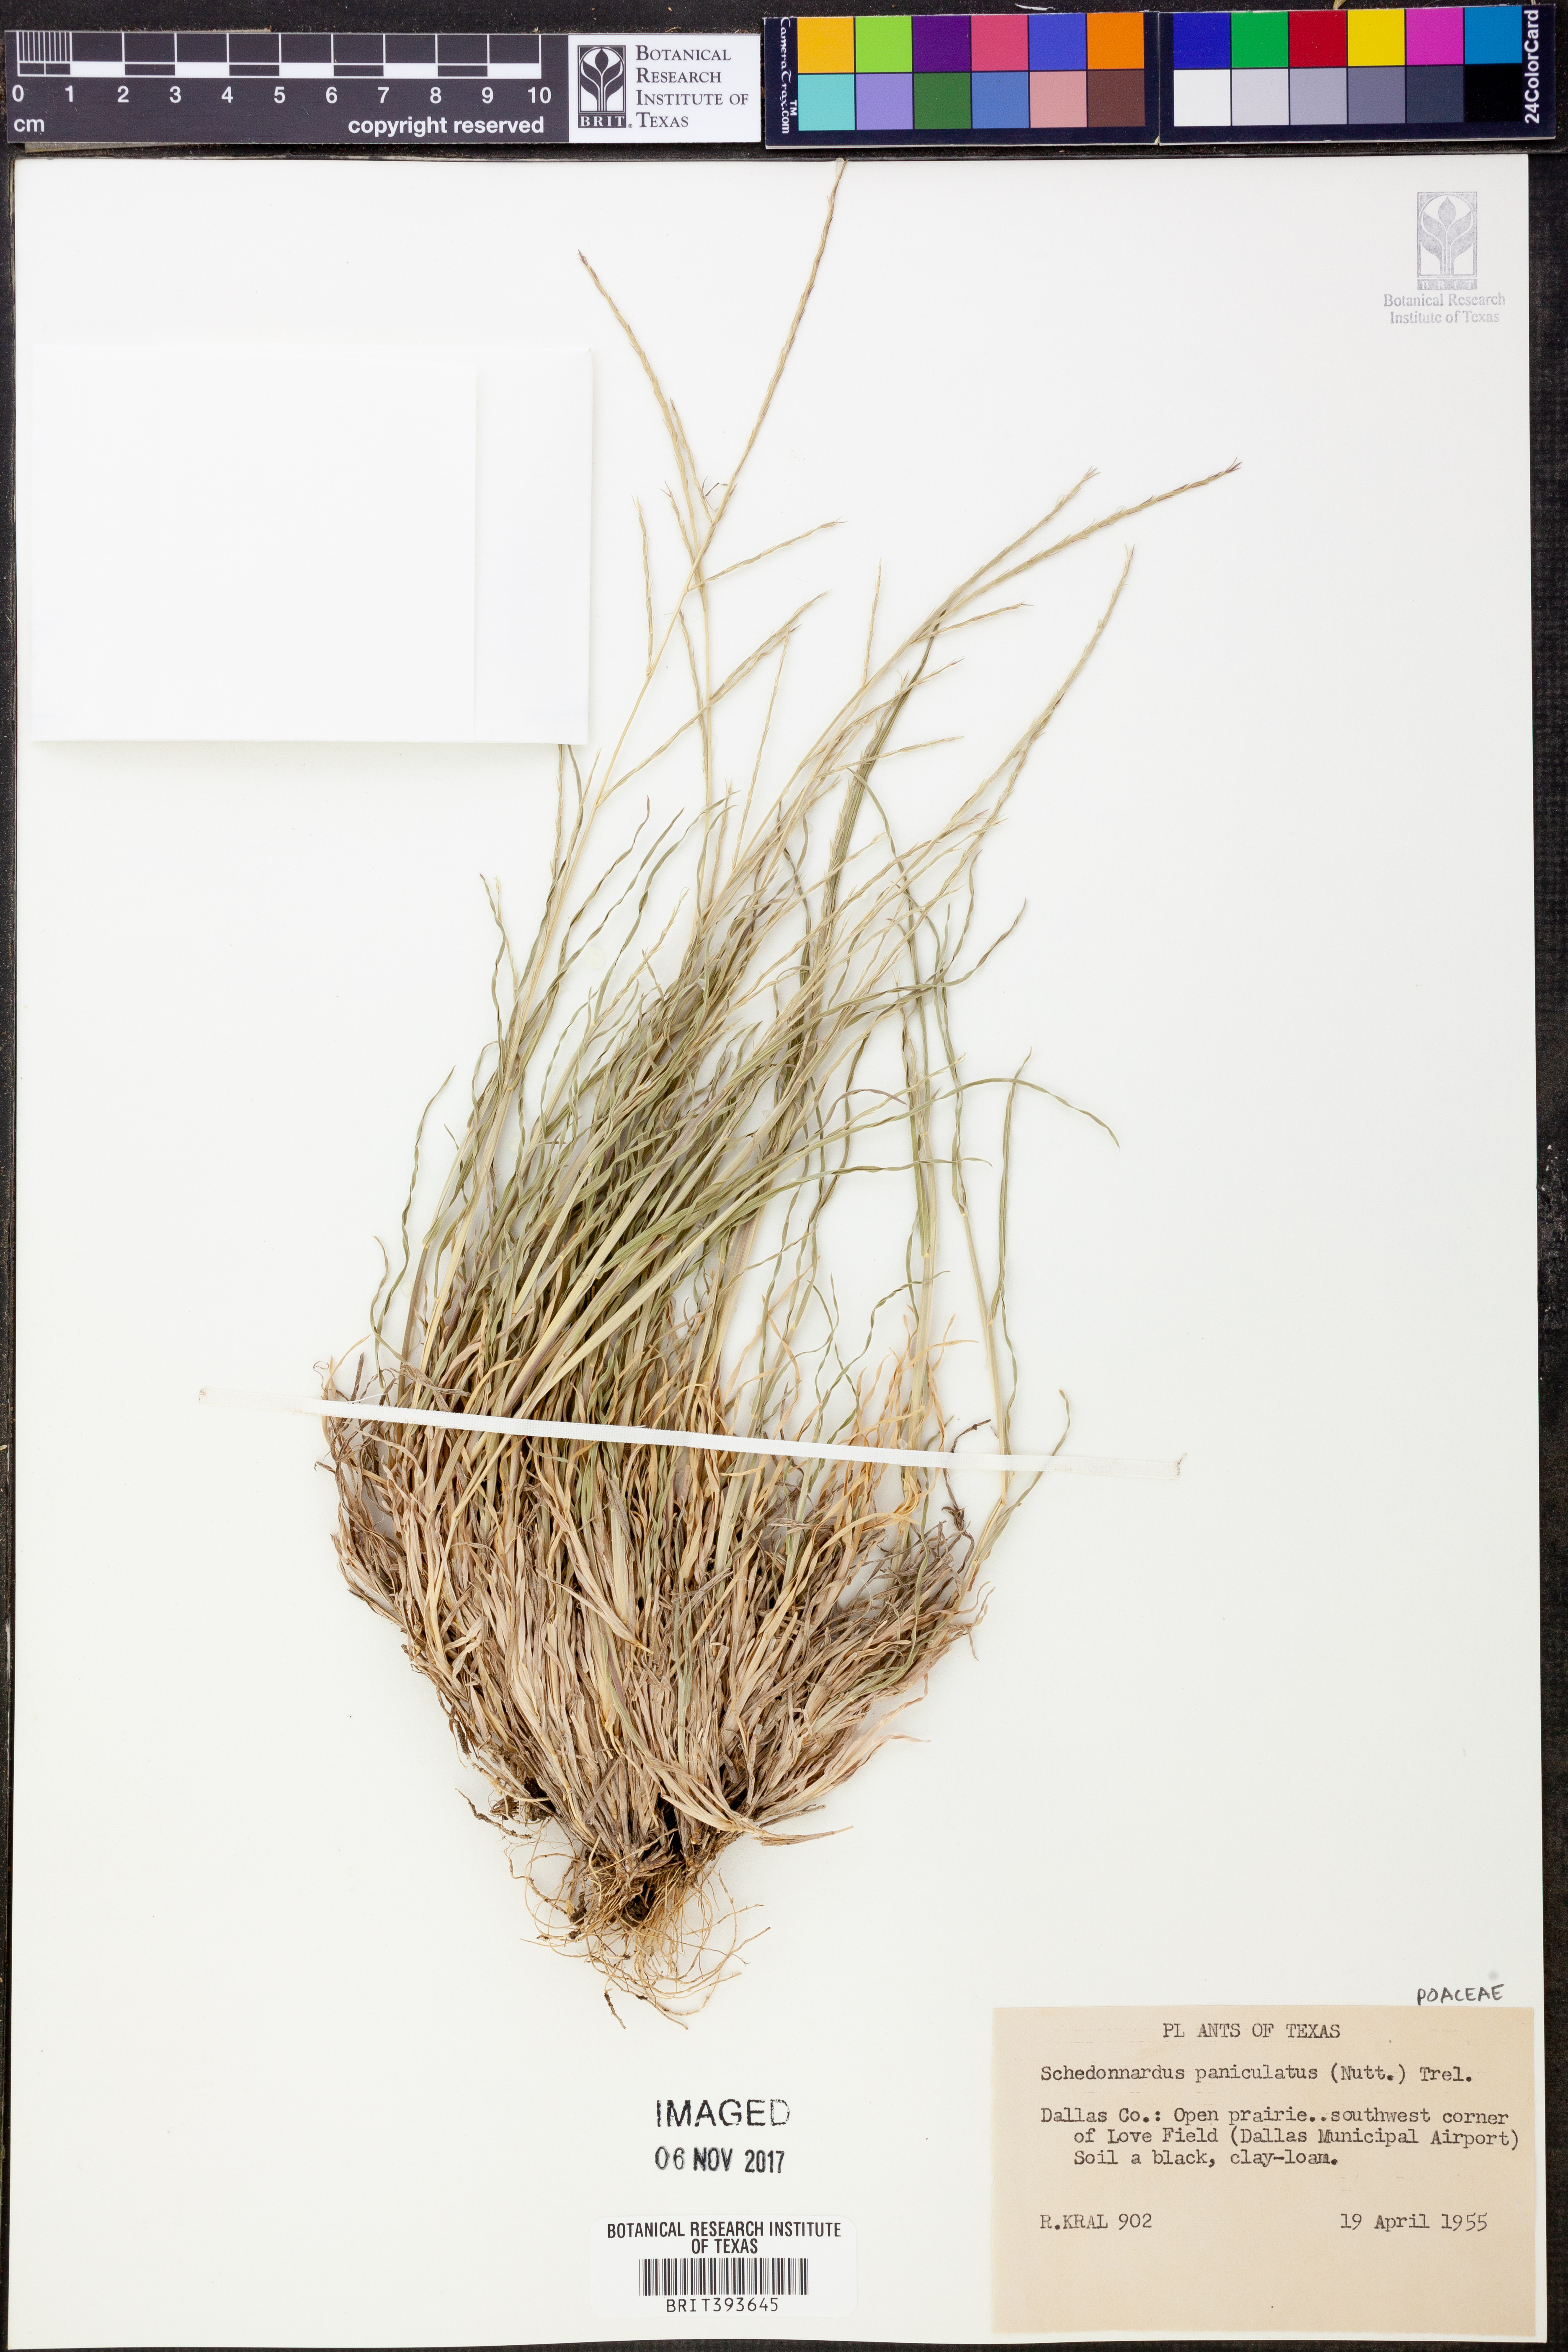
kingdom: Plantae
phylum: Tracheophyta
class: Liliopsida
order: Poales
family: Poaceae
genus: Muhlenbergia
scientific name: Muhlenbergia paniculata
